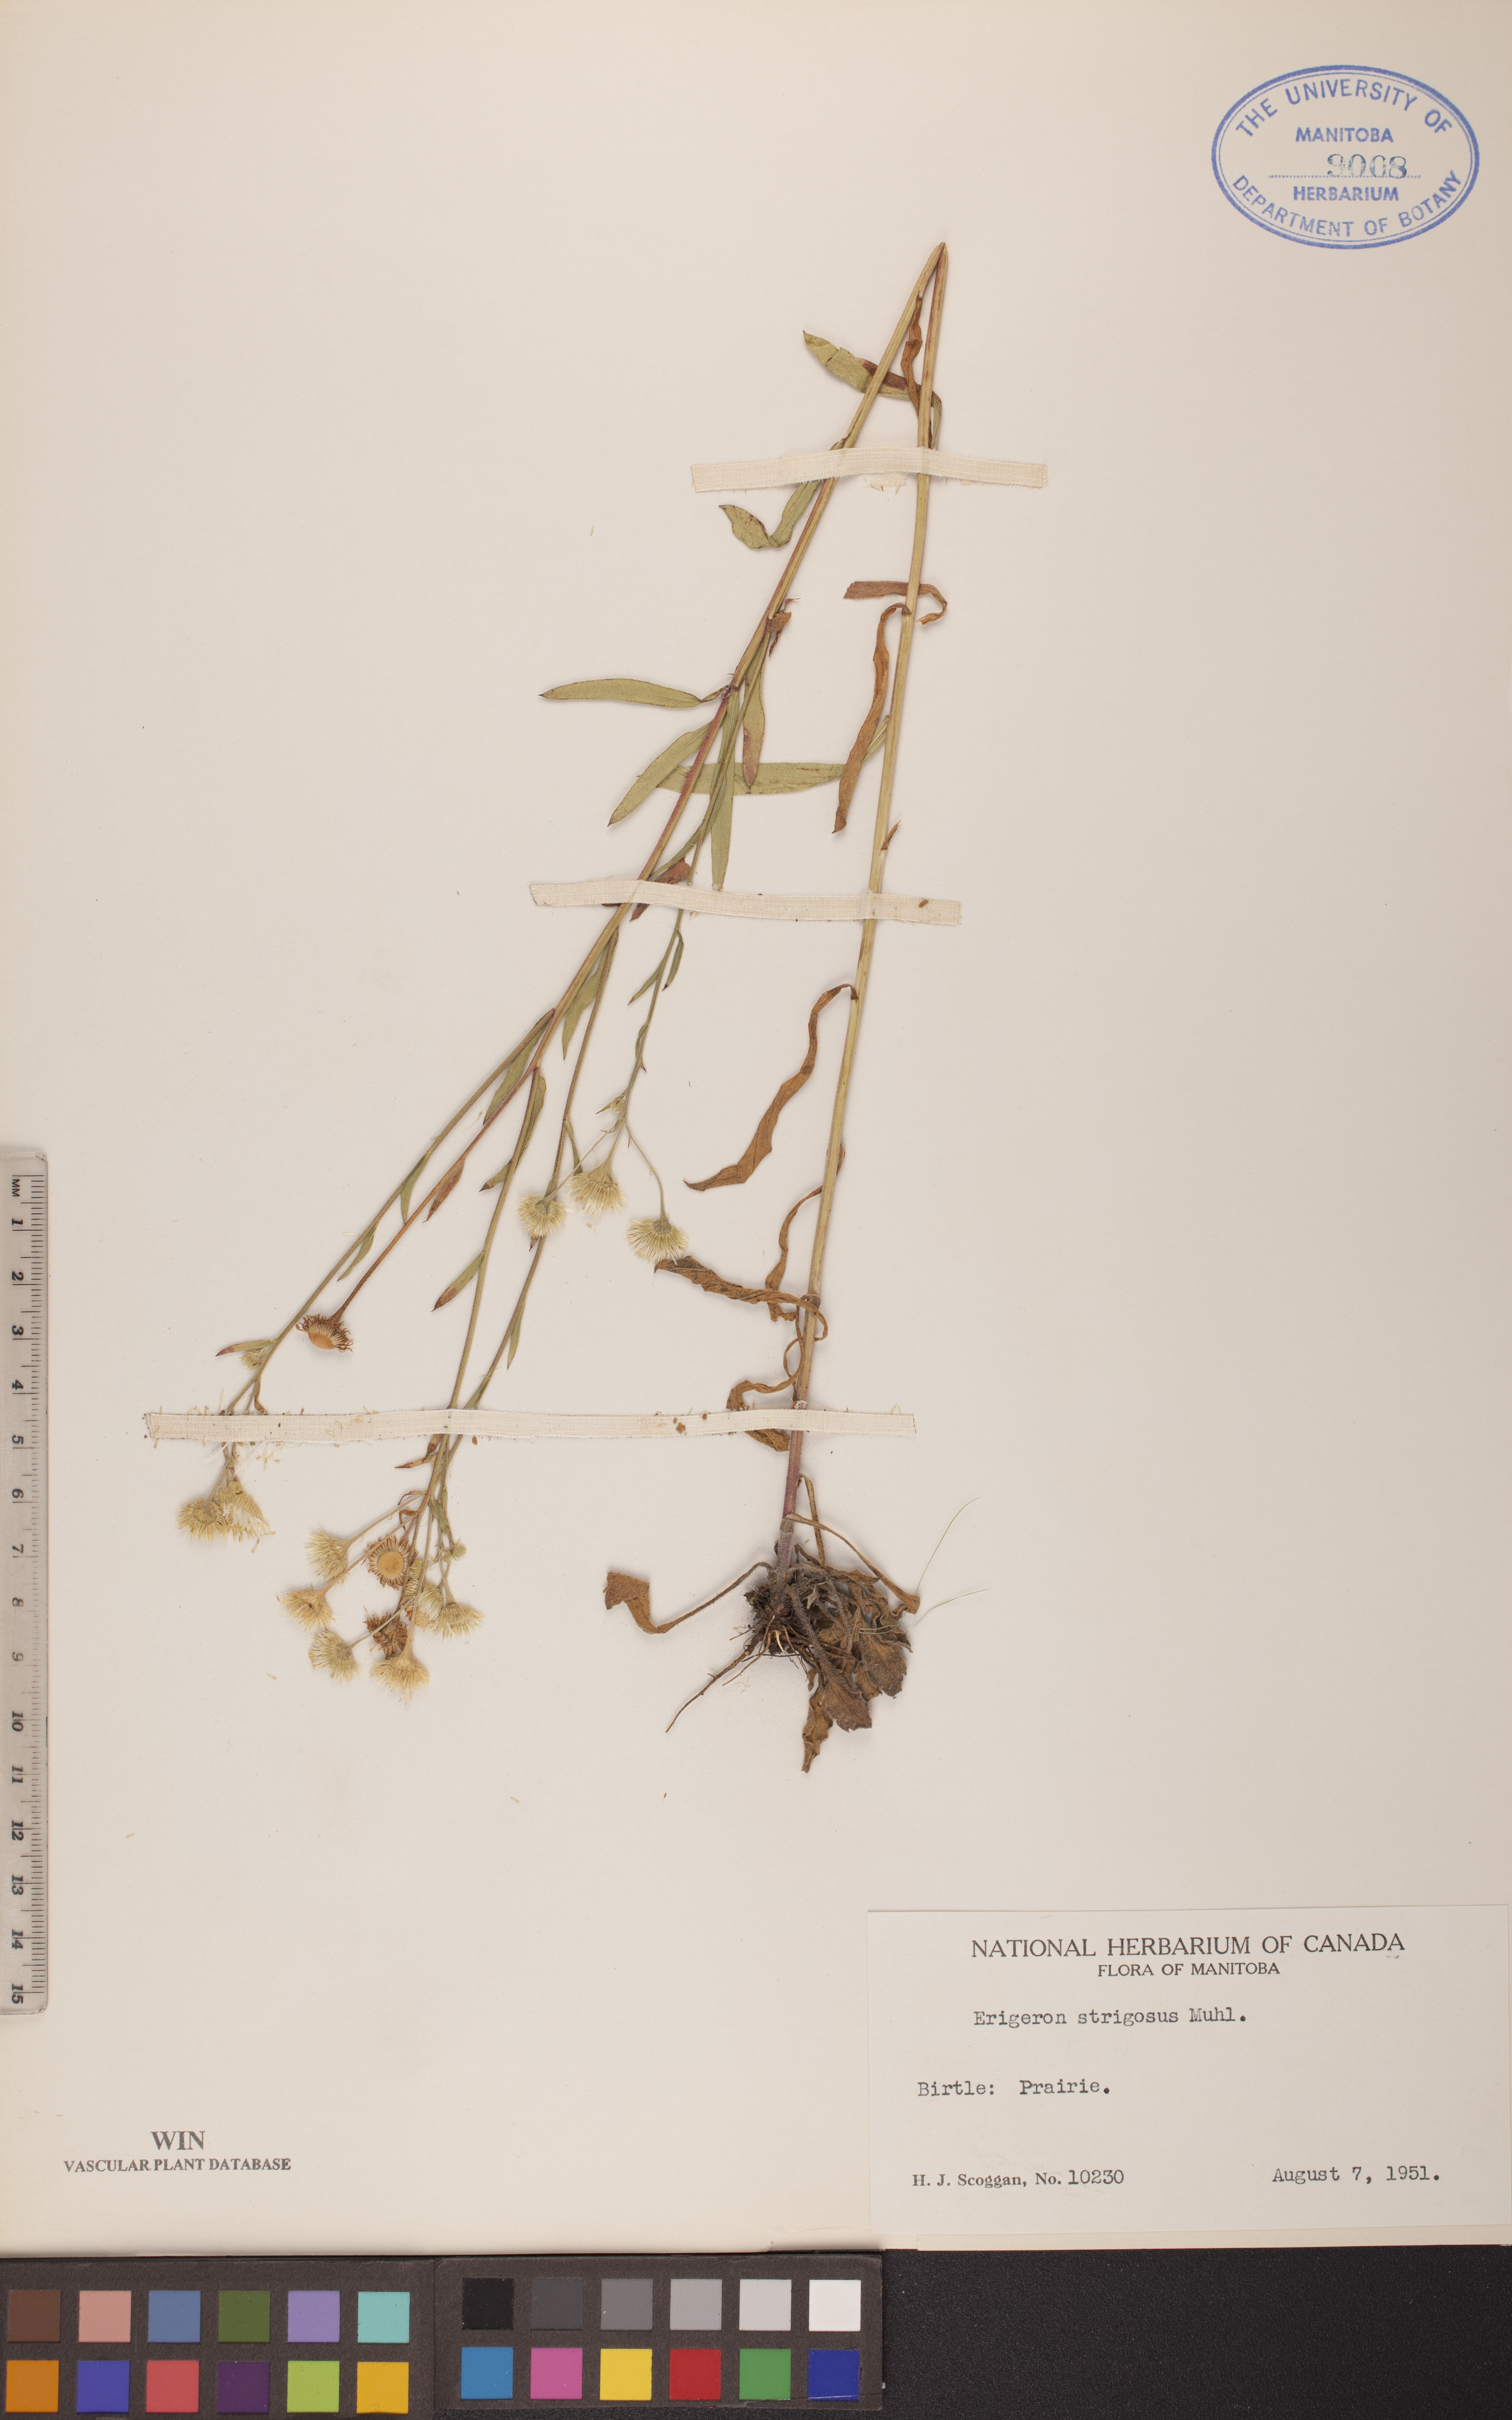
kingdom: Plantae
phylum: Tracheophyta
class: Magnoliopsida
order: Asterales
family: Asteraceae
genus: Erigeron
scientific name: Erigeron strigosus
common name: Common eastern fleabane
